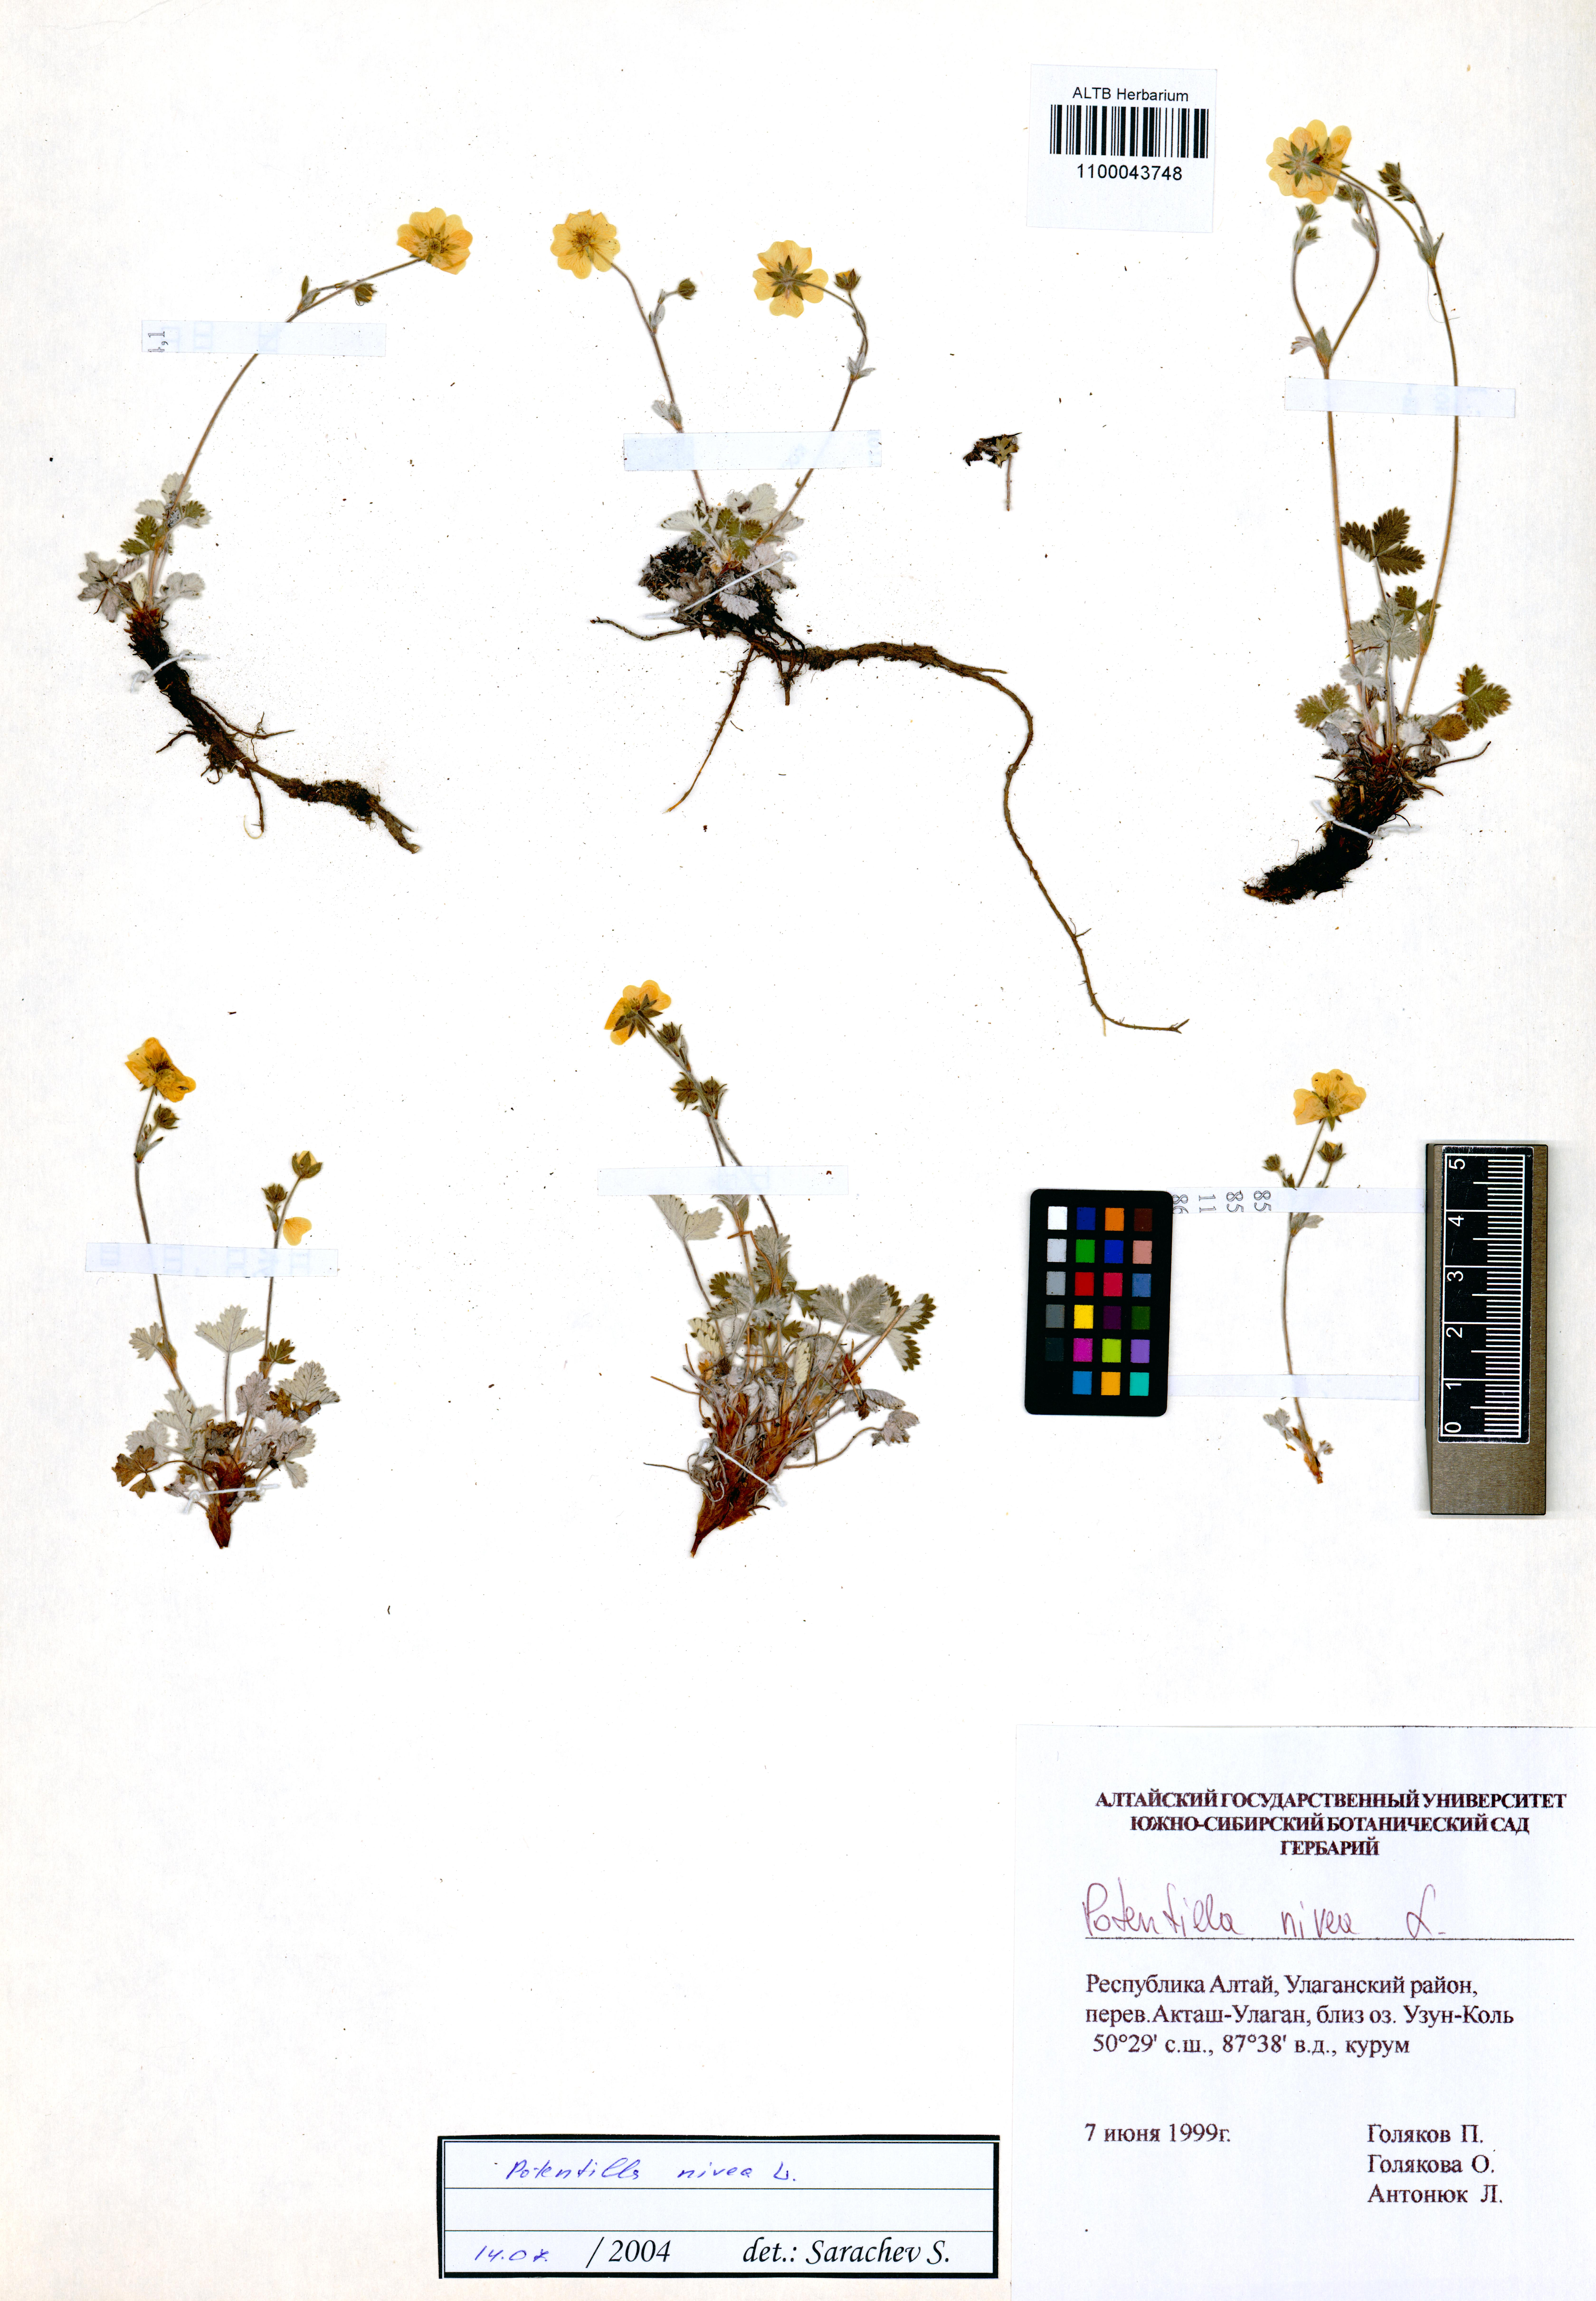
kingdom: Plantae
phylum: Tracheophyta
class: Magnoliopsida
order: Rosales
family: Rosaceae
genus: Potentilla
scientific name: Potentilla nivea
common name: Snow cinquefoil
